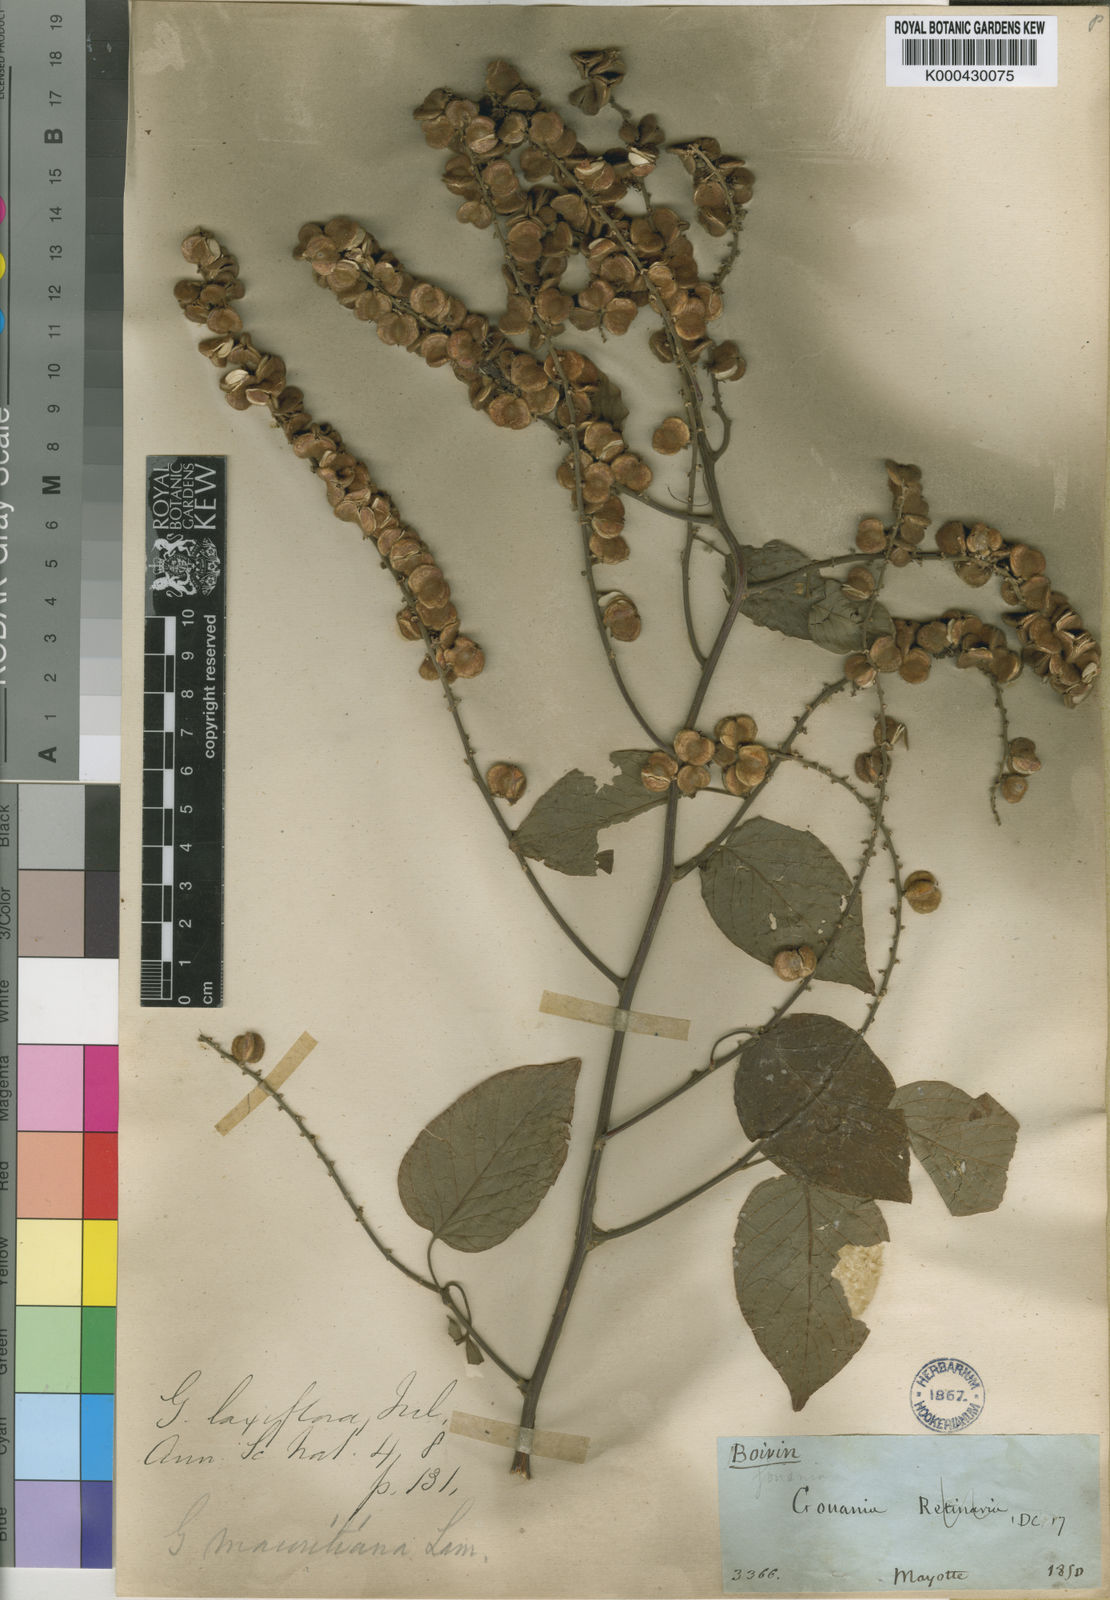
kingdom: Plantae
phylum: Tracheophyta
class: Magnoliopsida
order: Rosales
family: Rhamnaceae
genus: Gouania
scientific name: Gouania laxiflora
